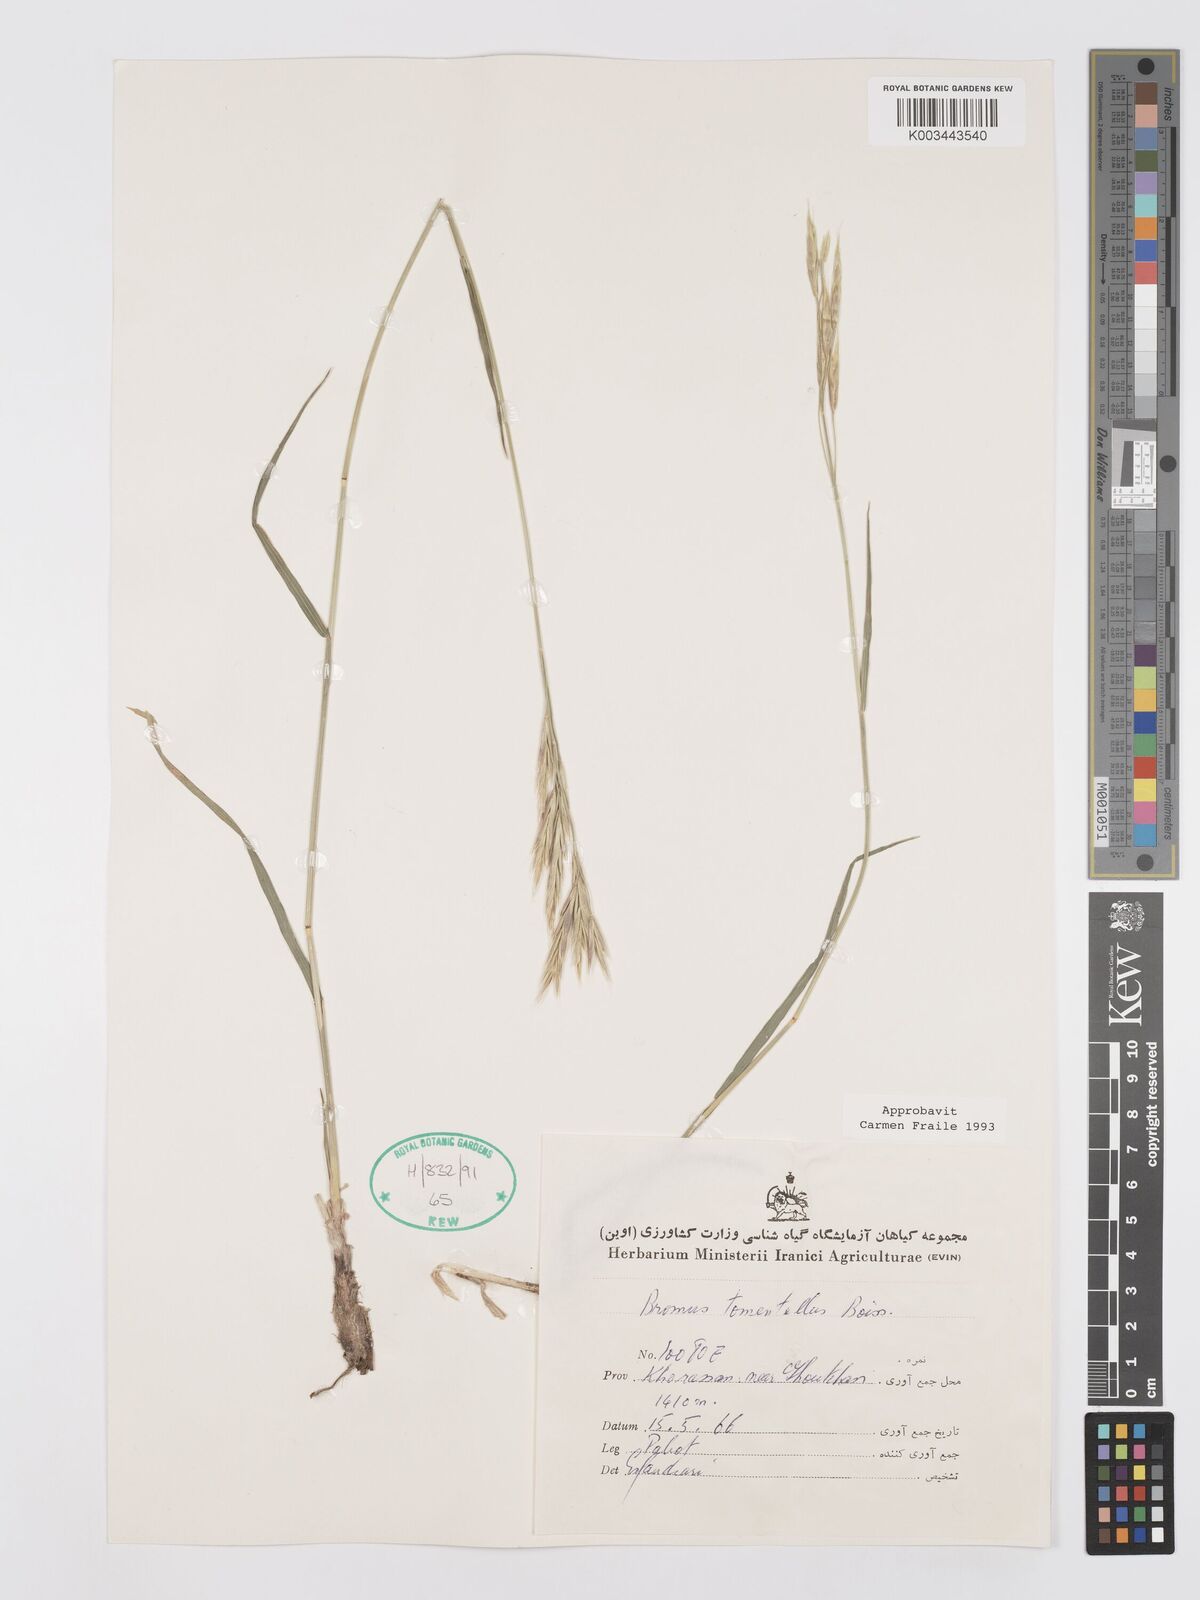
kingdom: Plantae
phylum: Tracheophyta
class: Liliopsida
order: Poales
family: Poaceae
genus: Bromus
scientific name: Bromus tomentellus
